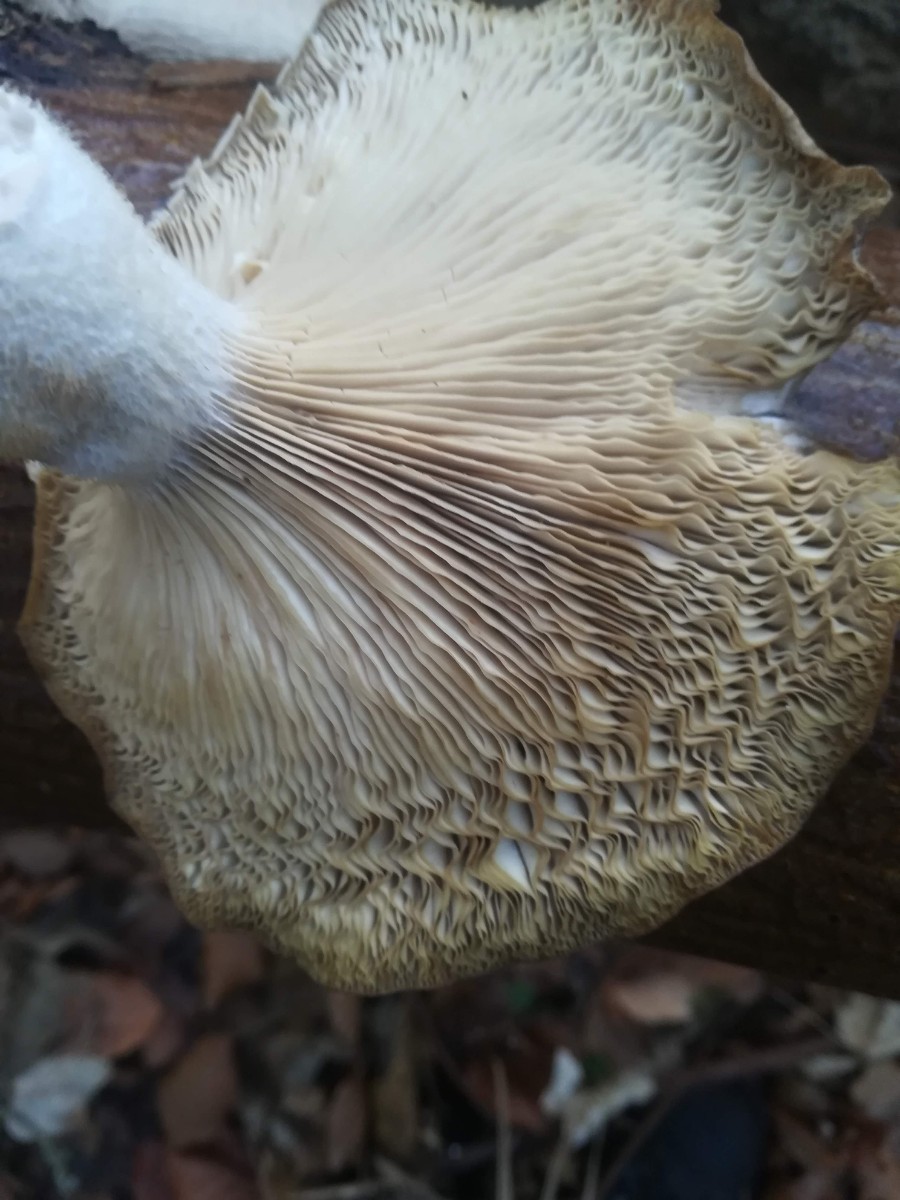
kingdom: Fungi
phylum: Basidiomycota
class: Agaricomycetes
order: Agaricales
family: Pleurotaceae
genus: Pleurotus
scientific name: Pleurotus ostreatus
